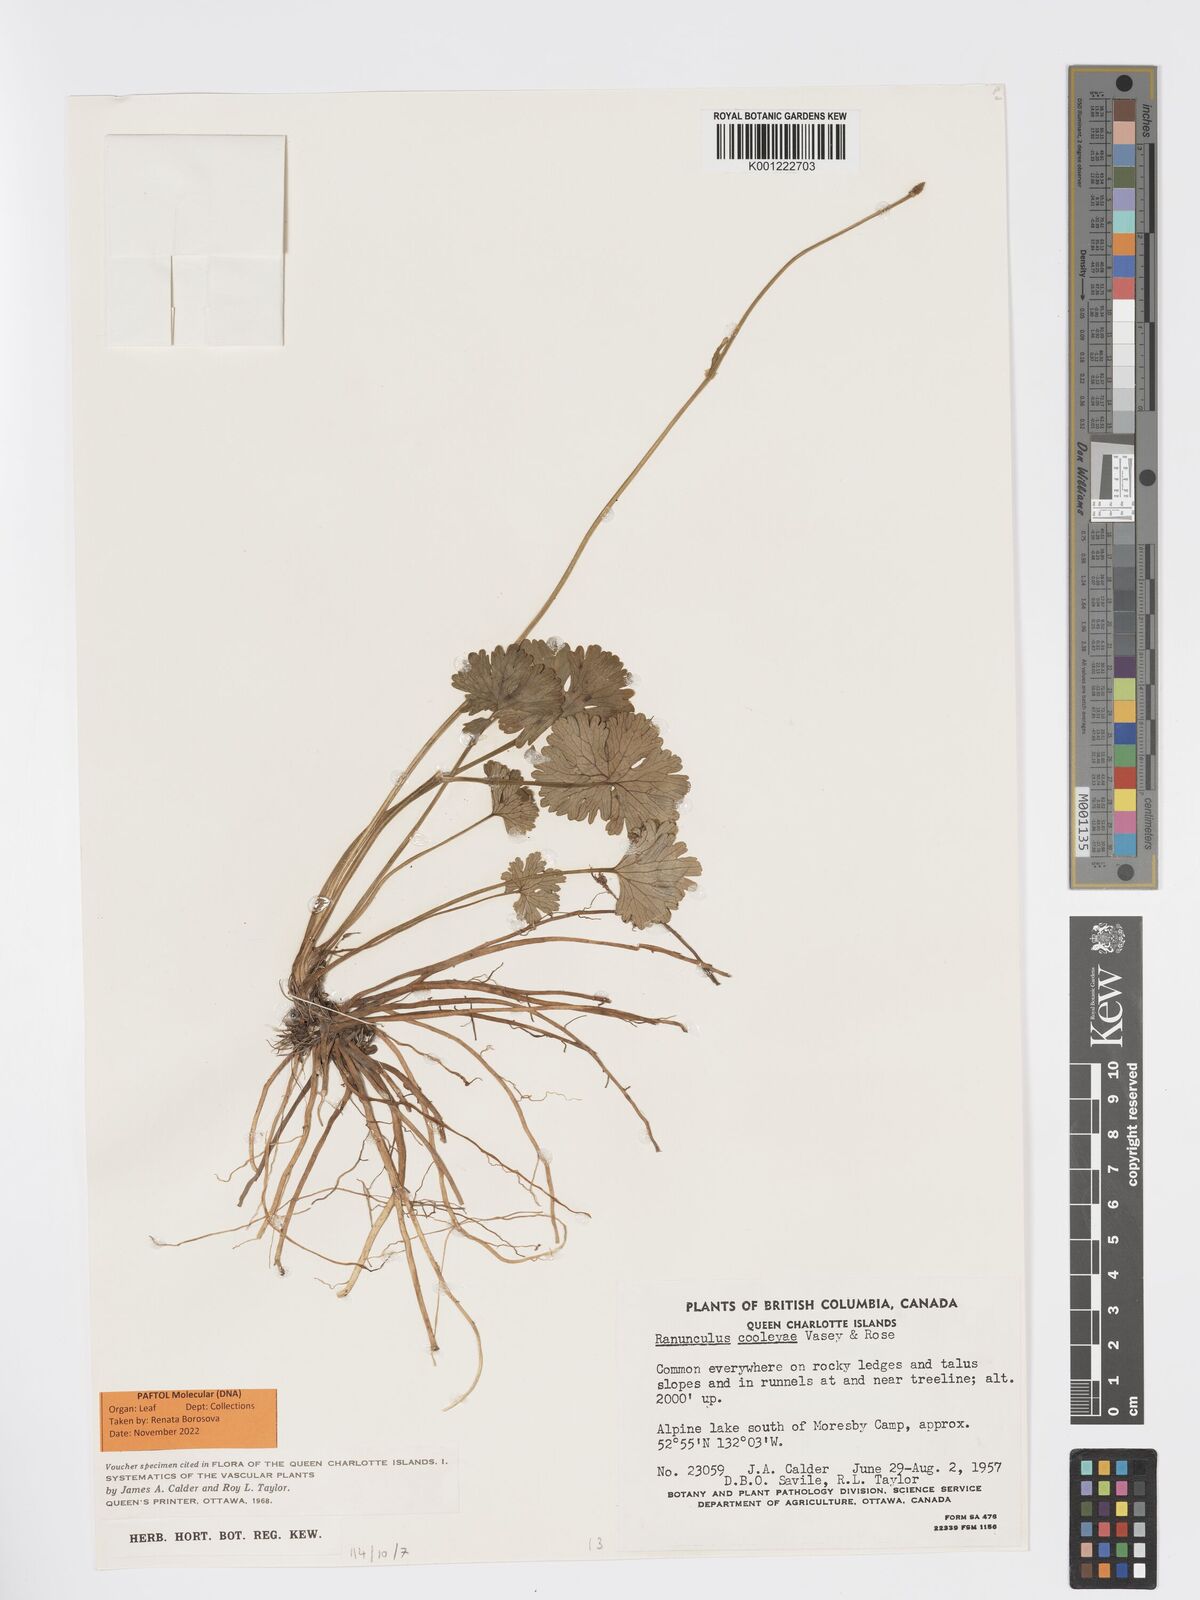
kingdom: Plantae
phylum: Tracheophyta
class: Magnoliopsida
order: Ranunculales
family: Ranunculaceae
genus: Arcteranthis
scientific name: Arcteranthis cooleyae
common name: Cooley's buttercup
